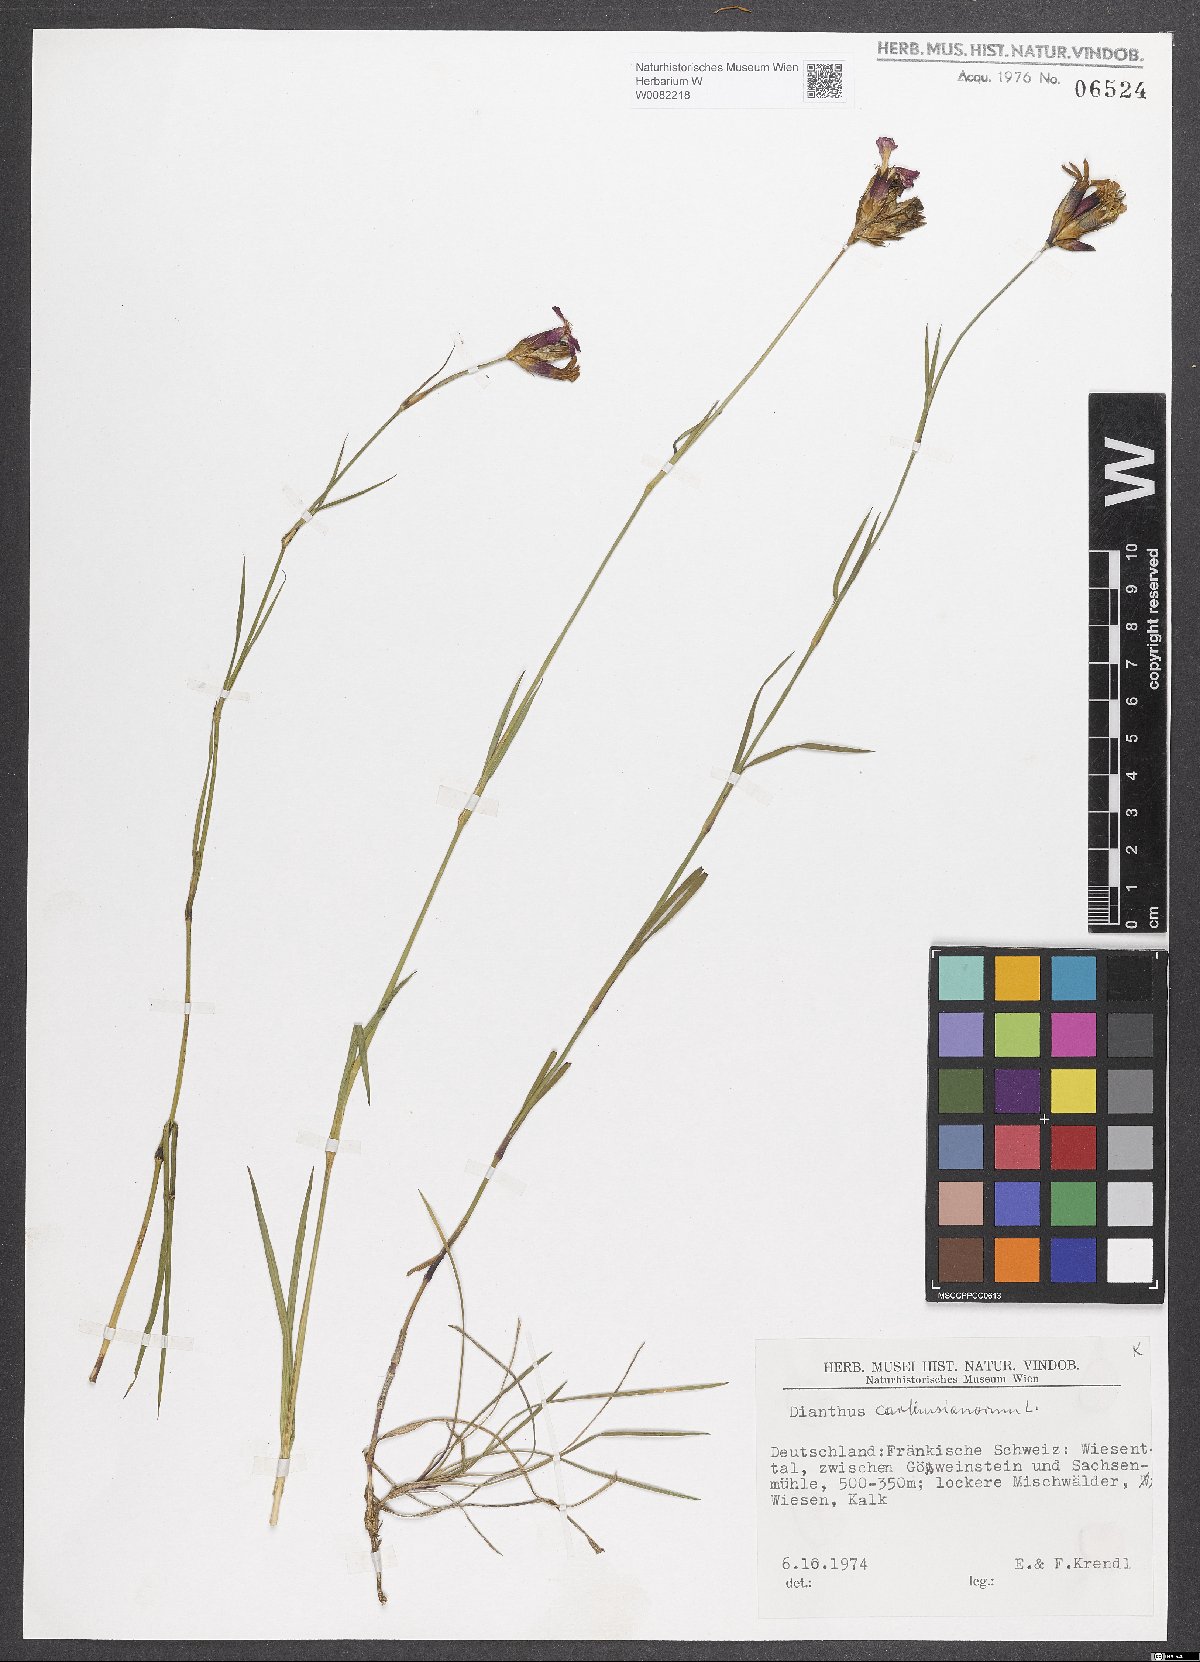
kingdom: Plantae
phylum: Tracheophyta
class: Magnoliopsida
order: Caryophyllales
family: Caryophyllaceae
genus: Dianthus
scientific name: Dianthus carthusianorum
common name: Carthusian pink
